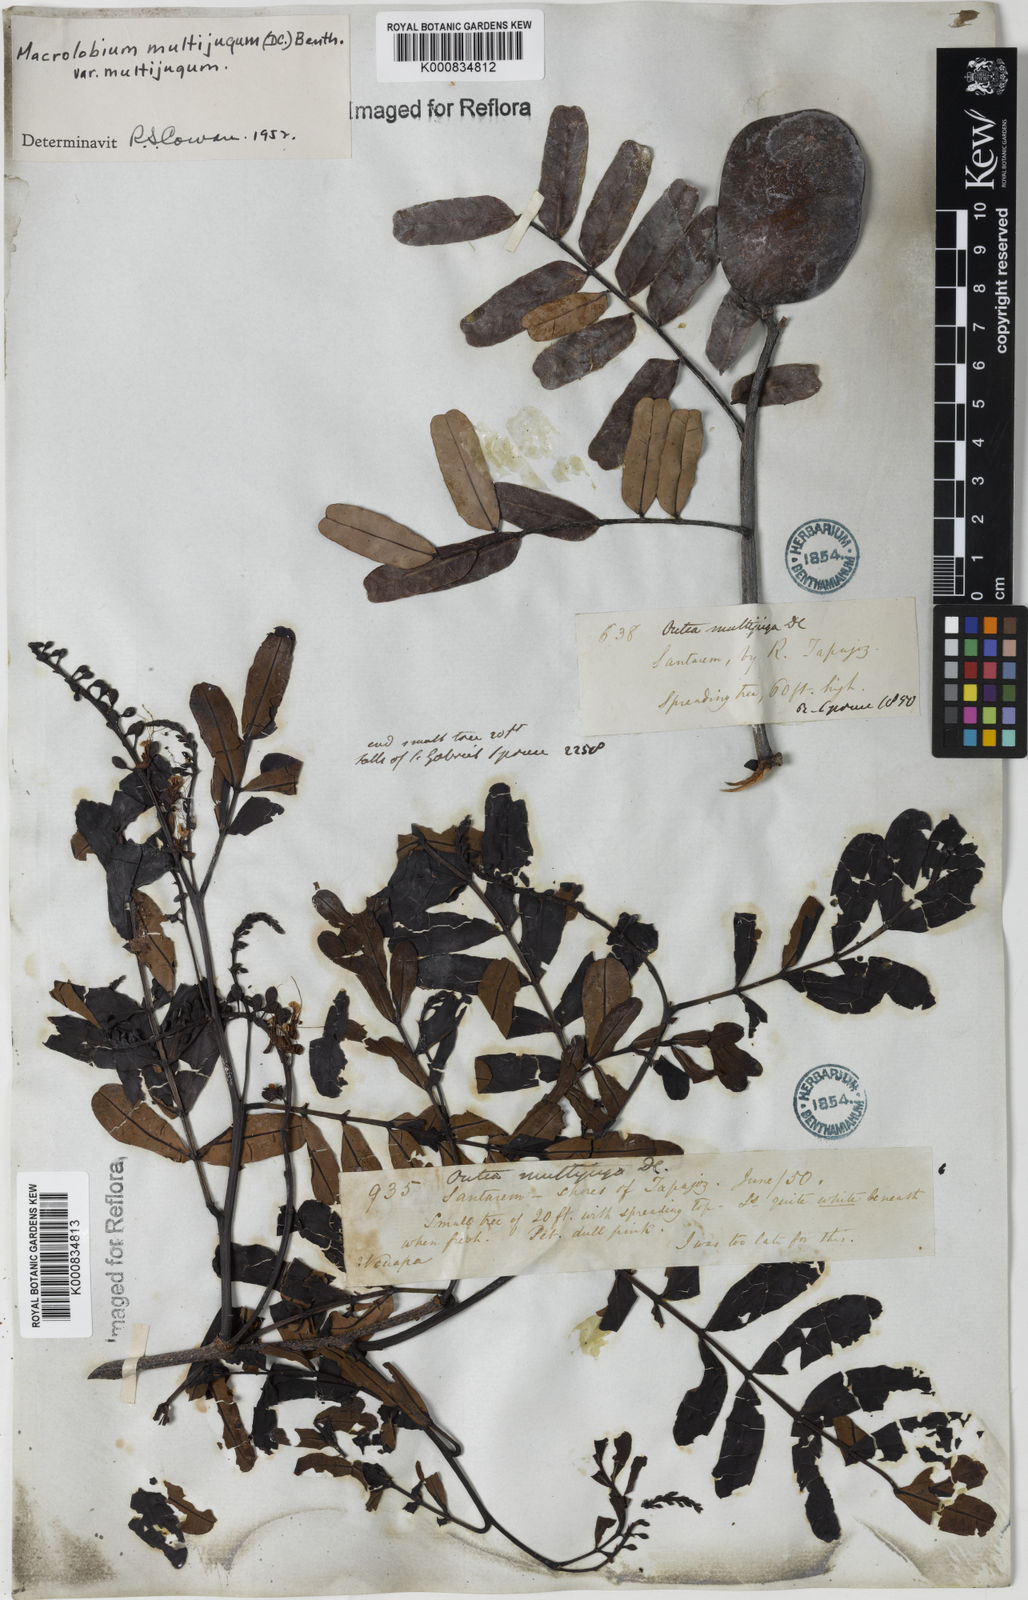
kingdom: Plantae
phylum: Tracheophyta
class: Magnoliopsida
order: Fabales
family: Fabaceae
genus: Macrolobium
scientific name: Macrolobium multijugum
